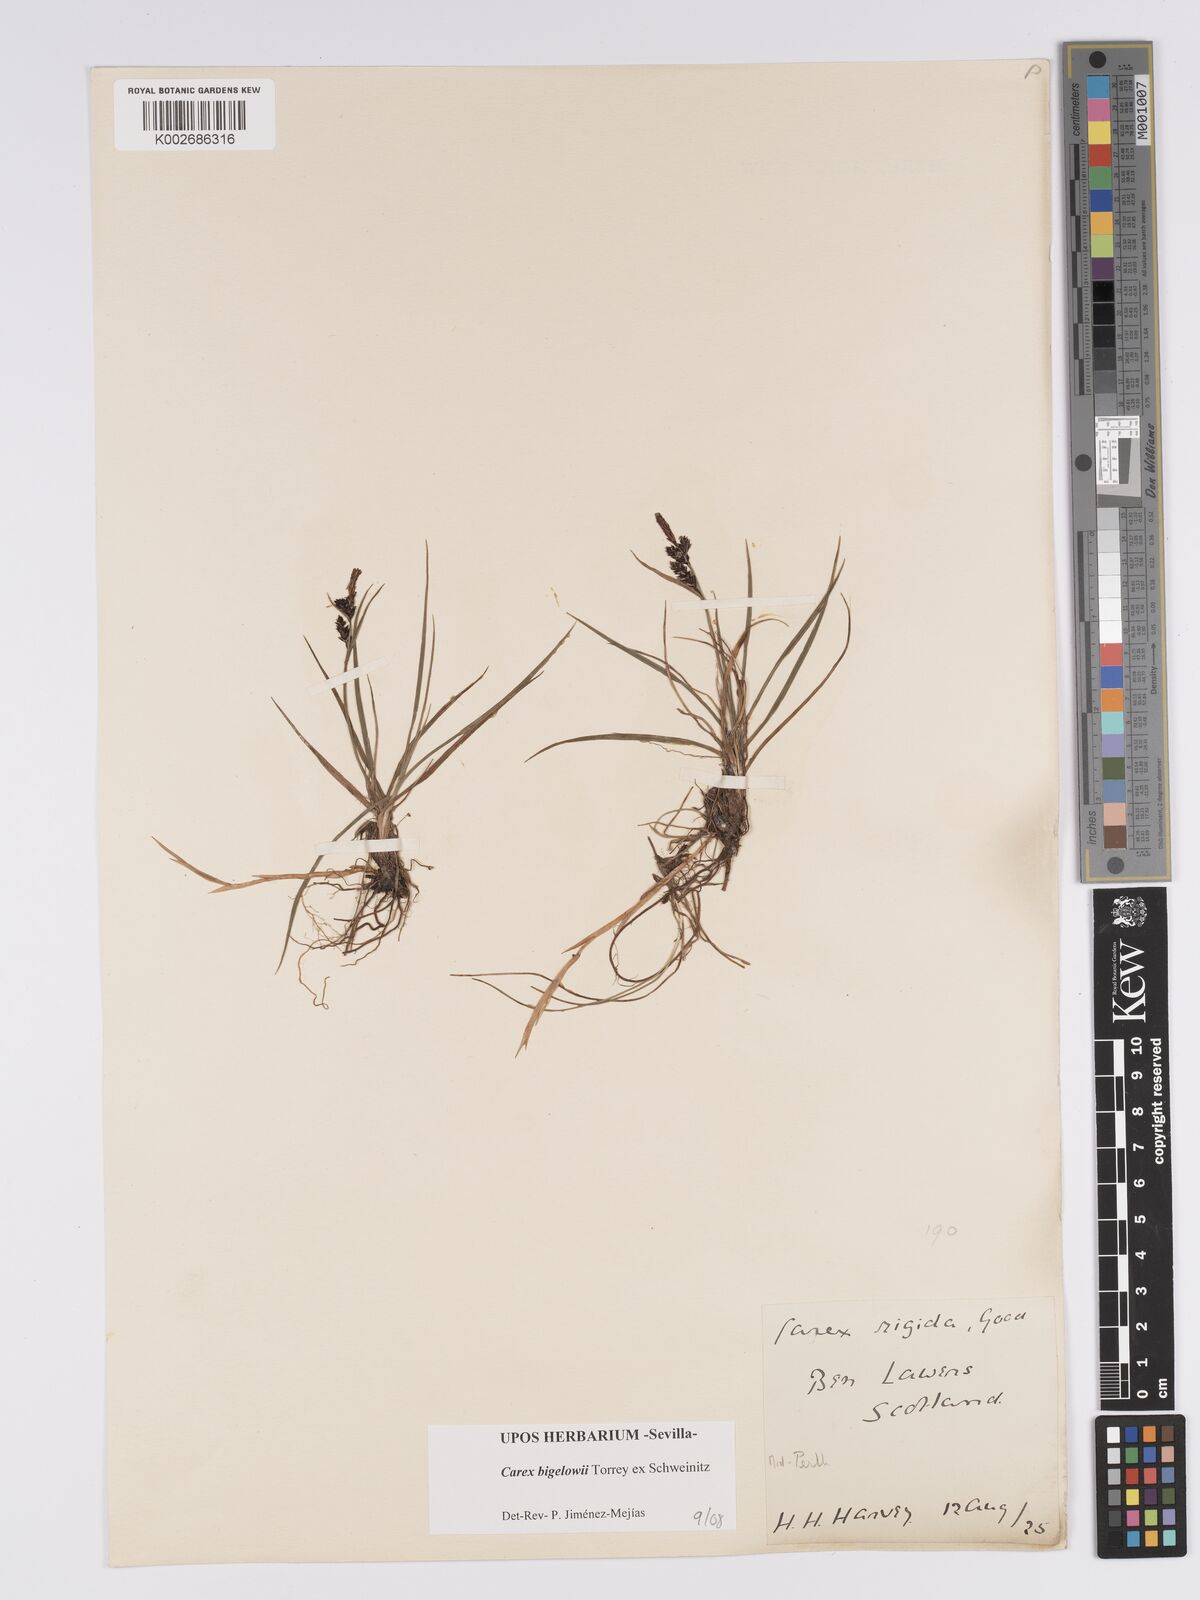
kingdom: Plantae
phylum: Tracheophyta
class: Liliopsida
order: Poales
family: Cyperaceae
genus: Carex
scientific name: Carex bigelowii
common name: Stiff sedge
